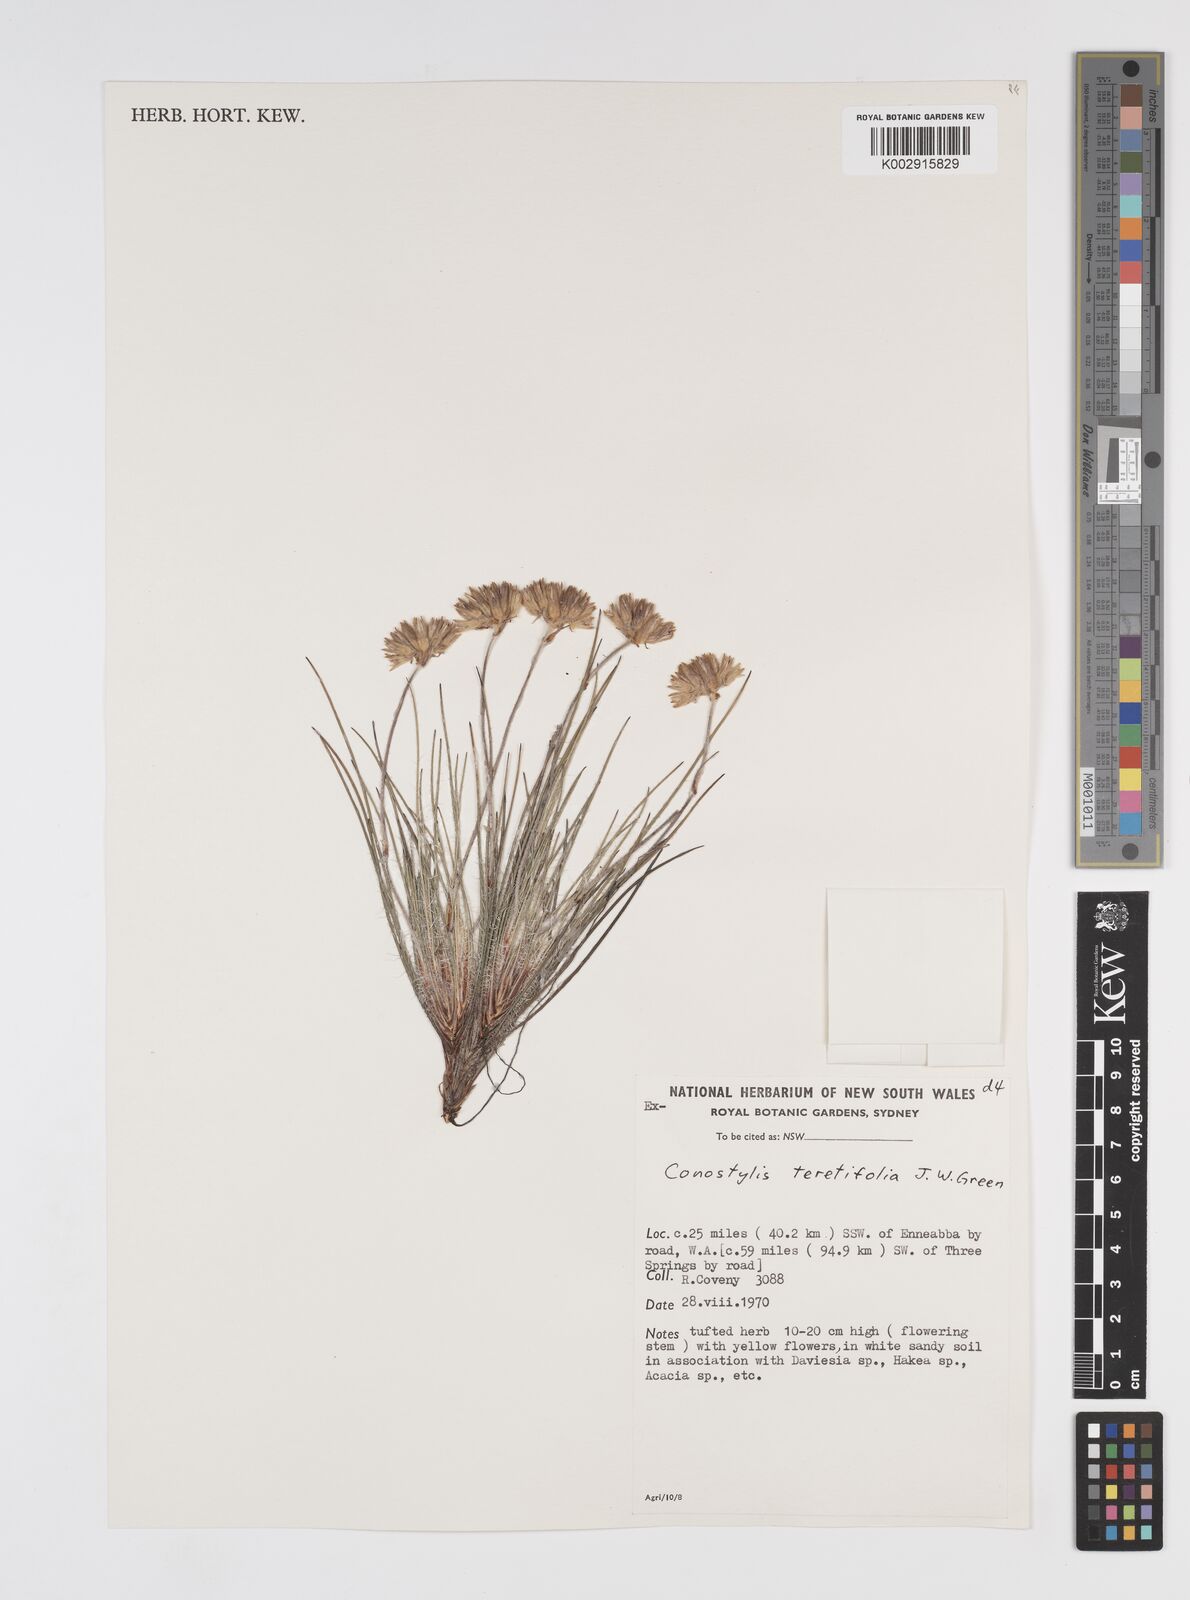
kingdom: Plantae
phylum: Tracheophyta
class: Liliopsida
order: Commelinales
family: Haemodoraceae
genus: Conostylis
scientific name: Conostylis teretifolia
